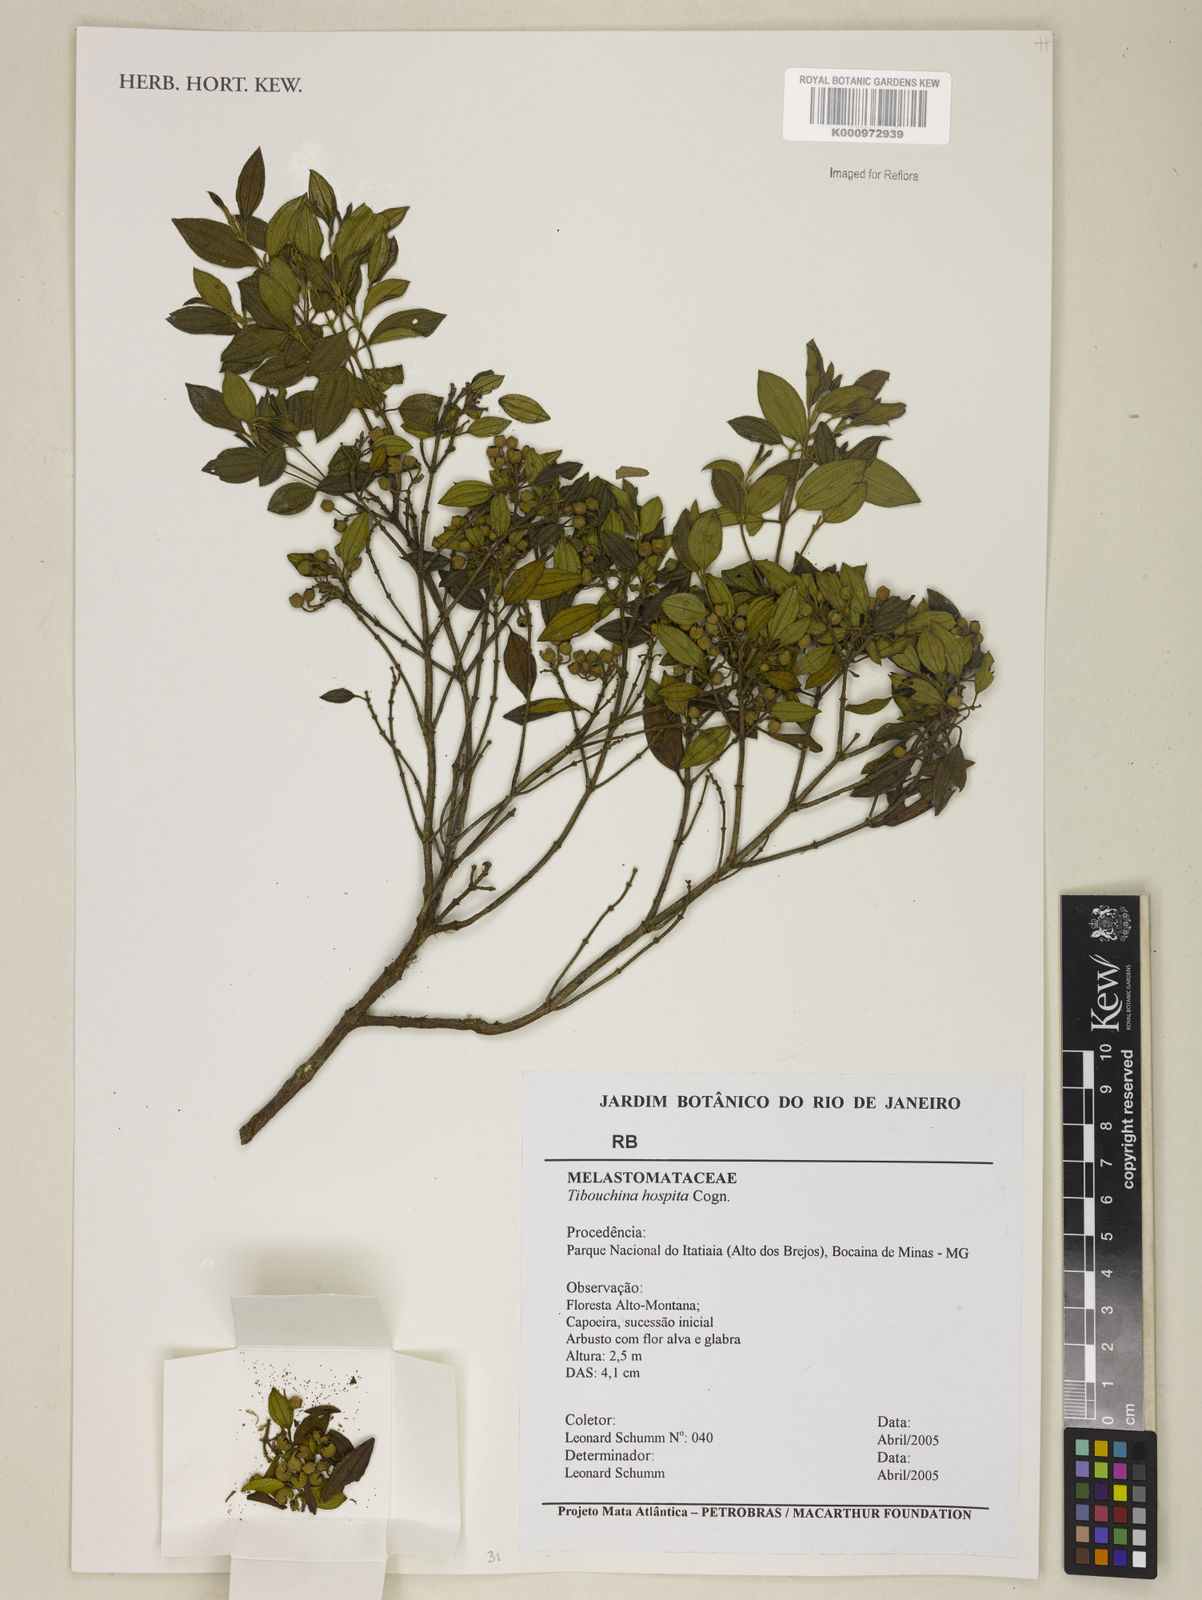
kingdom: Plantae
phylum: Tracheophyta
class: Magnoliopsida
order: Myrtales
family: Melastomataceae
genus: Pleroma
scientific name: Pleroma hospitum
